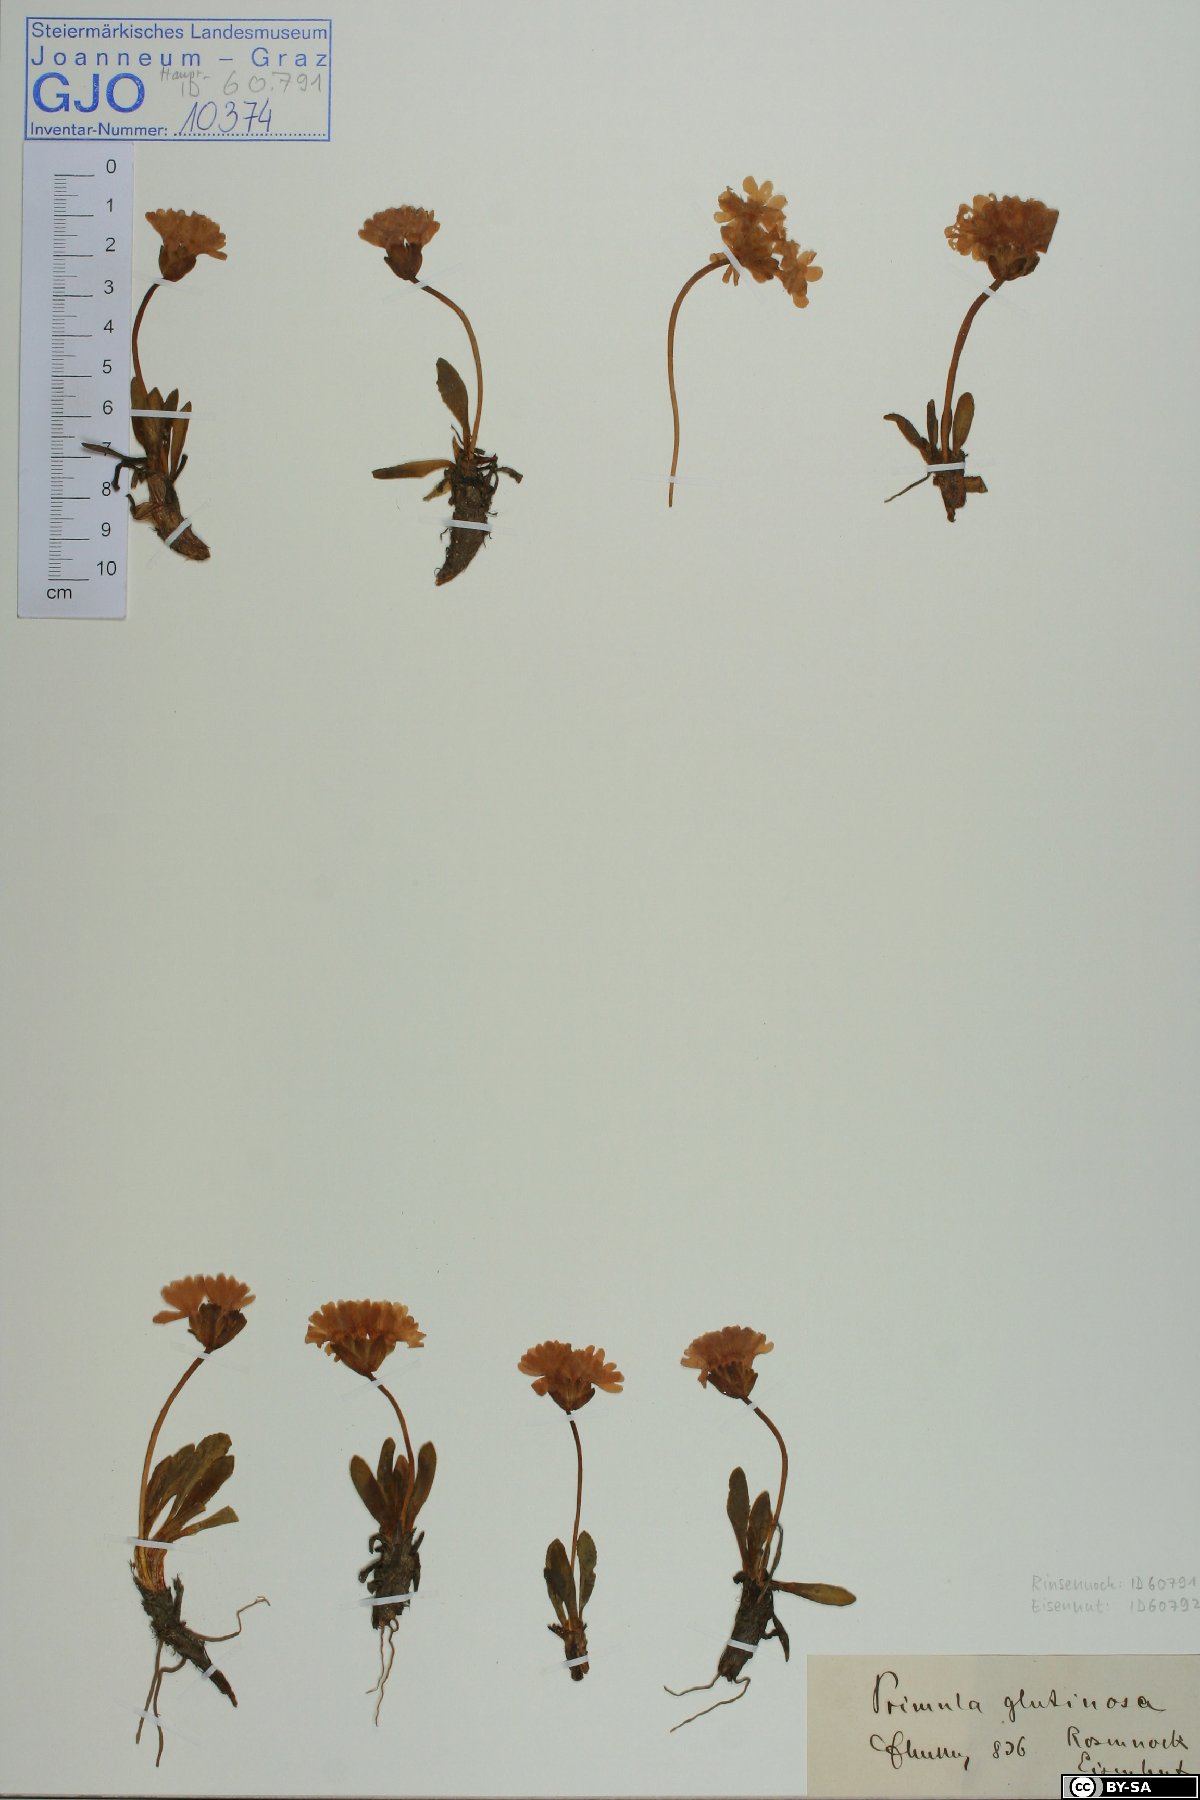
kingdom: Plantae
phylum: Tracheophyta
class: Magnoliopsida
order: Ericales
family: Primulaceae
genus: Primula
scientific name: Primula glutinosa
